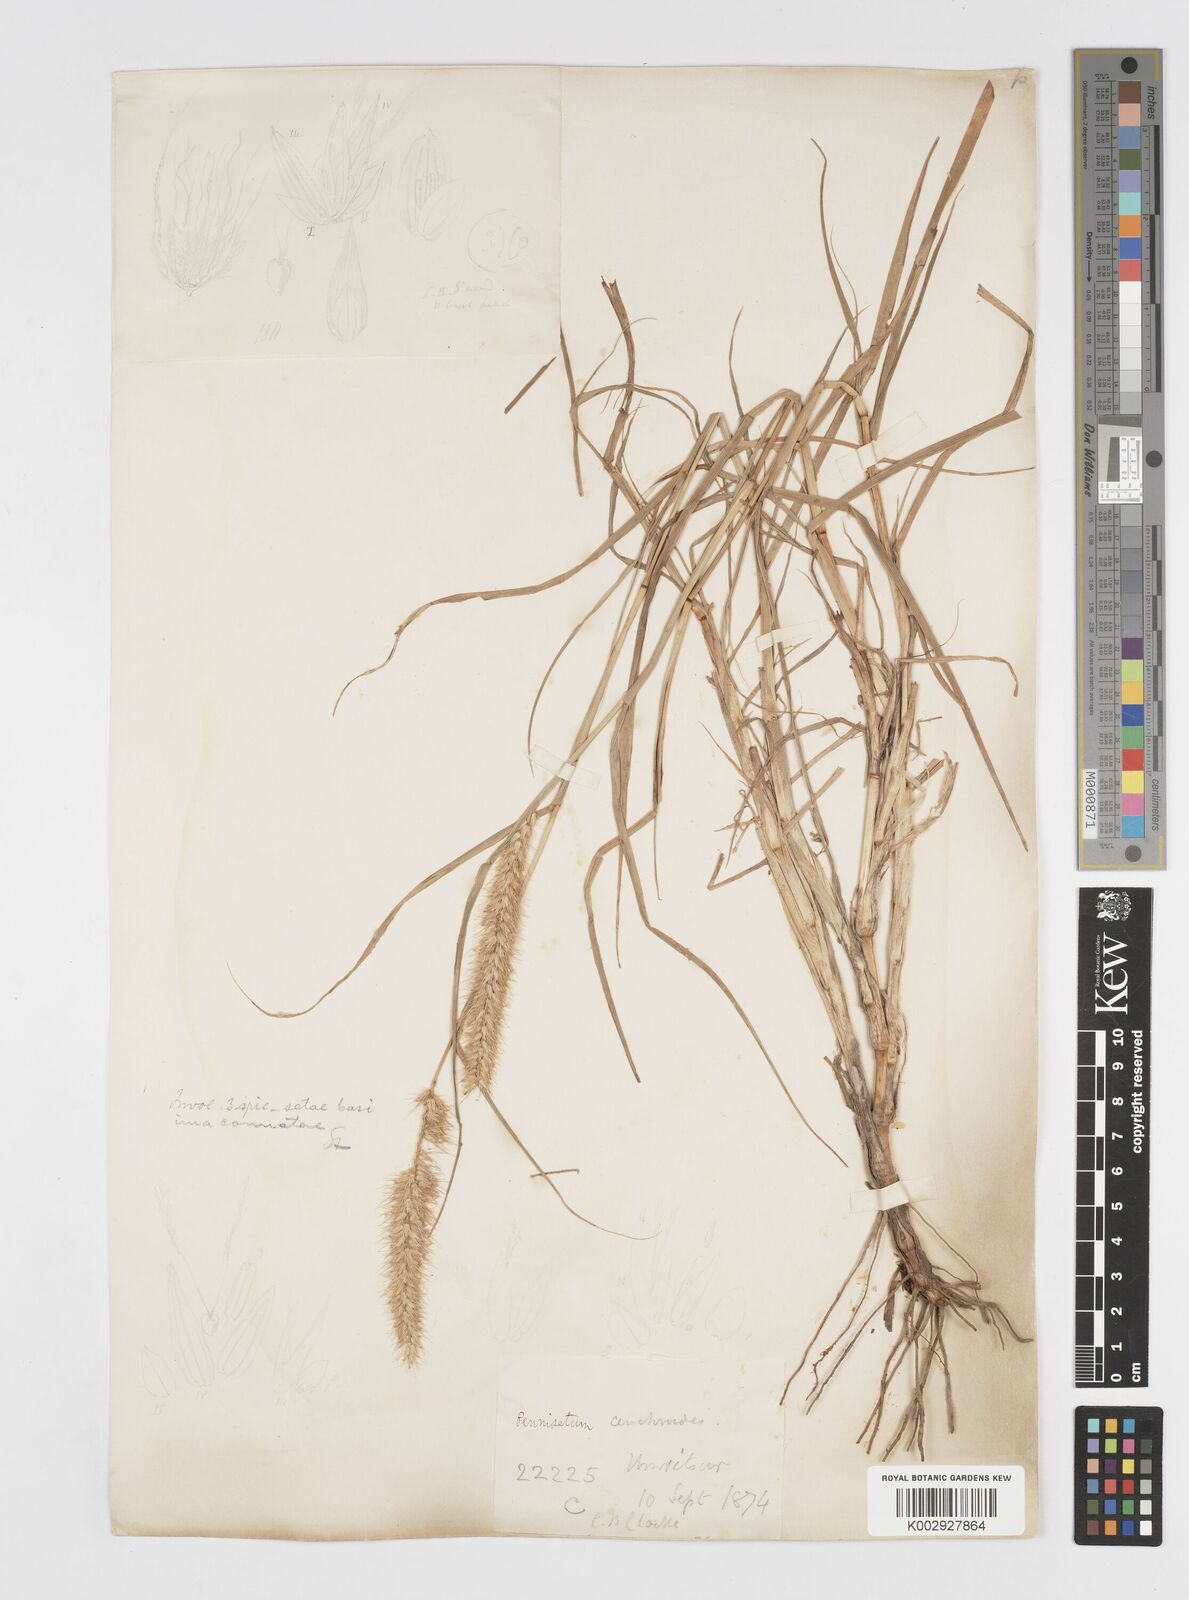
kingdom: Plantae
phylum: Tracheophyta
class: Liliopsida
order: Poales
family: Poaceae
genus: Cenchrus
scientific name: Cenchrus ciliaris
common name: Buffelgrass
